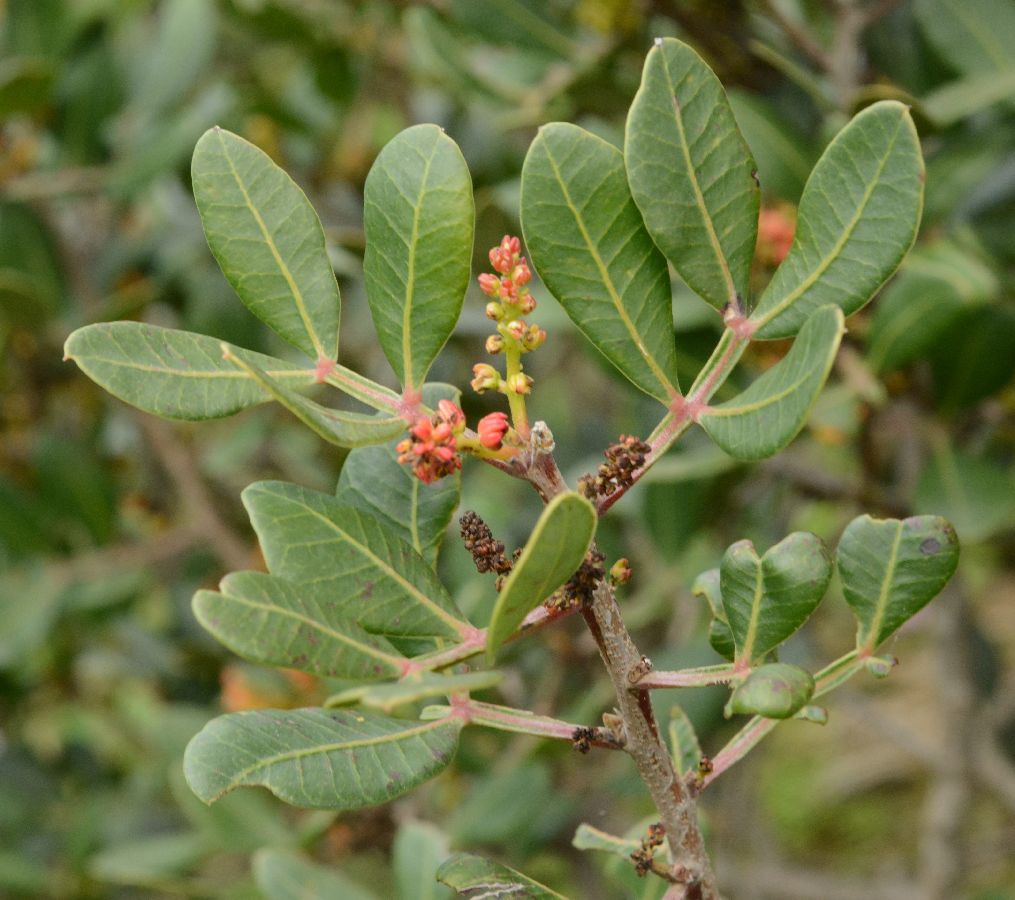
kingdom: Plantae
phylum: Tracheophyta
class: Magnoliopsida
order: Sapindales
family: Anacardiaceae
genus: Pistacia
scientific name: Pistacia lentiscus
